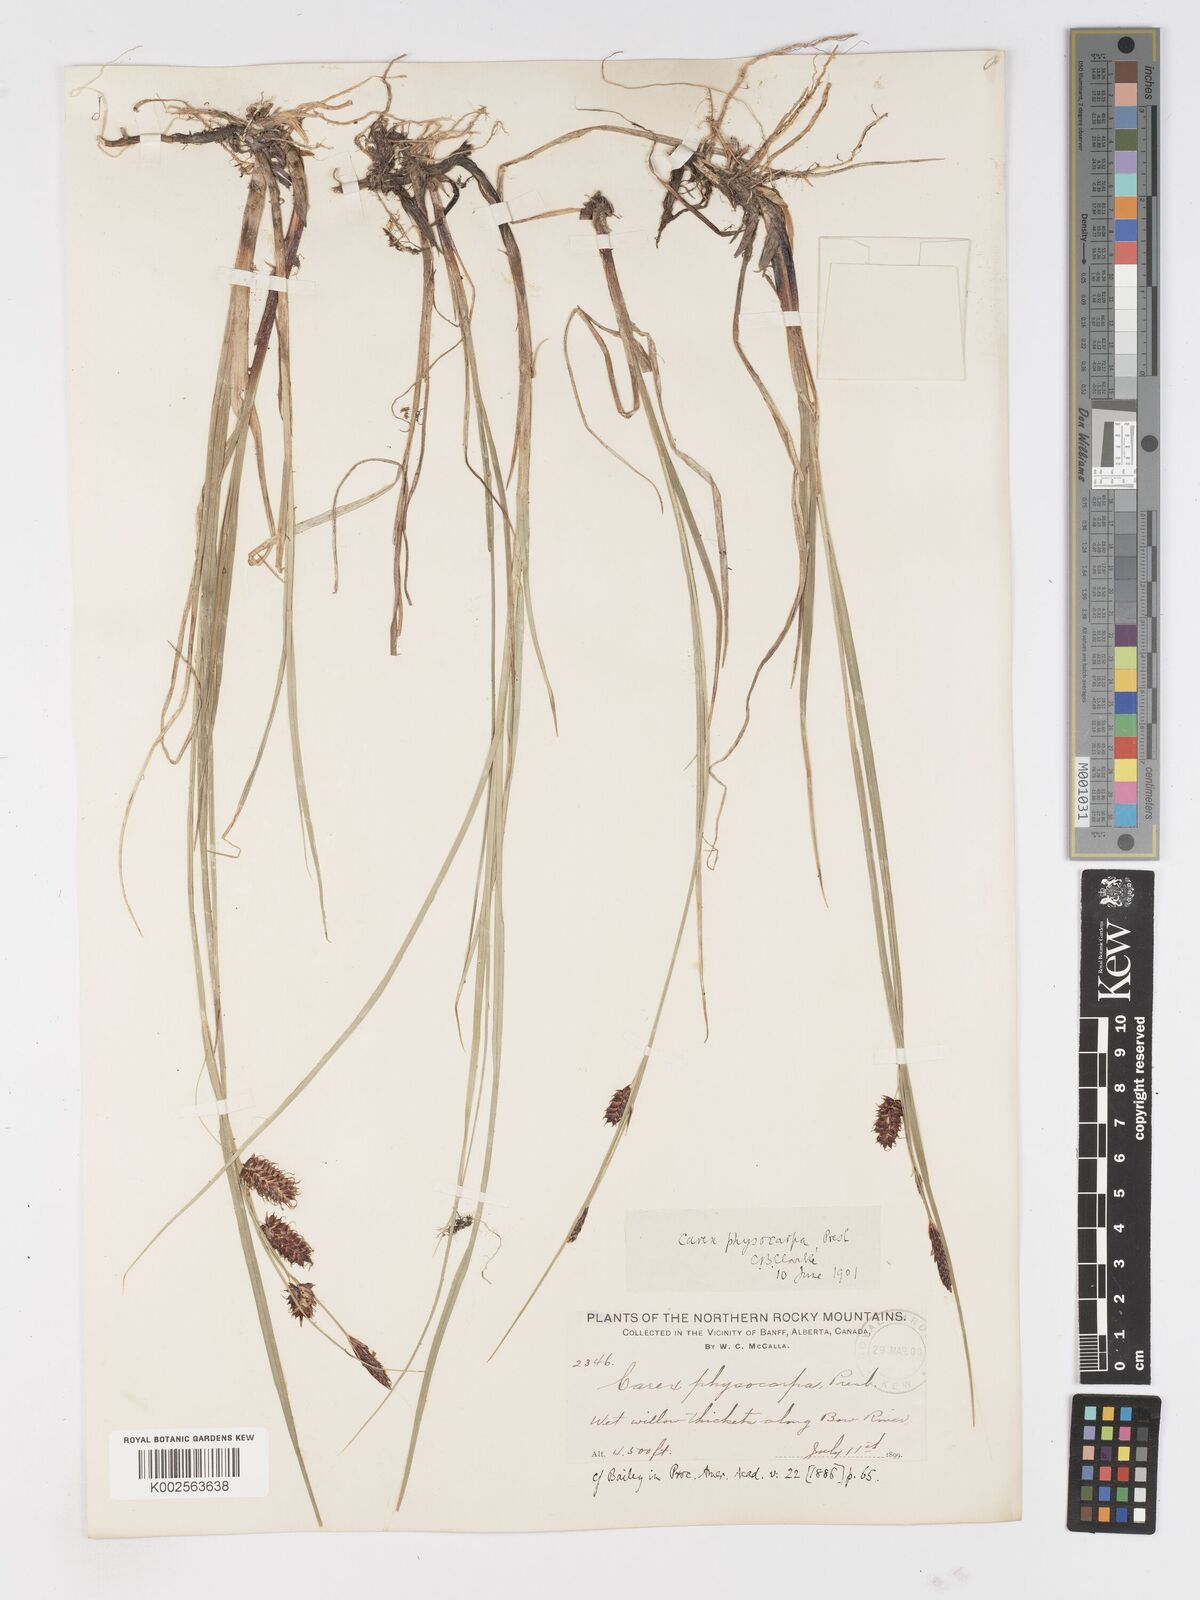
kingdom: Plantae
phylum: Tracheophyta
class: Liliopsida
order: Poales
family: Cyperaceae
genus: Carex
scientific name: Carex saxatilis
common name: Russet sedge
